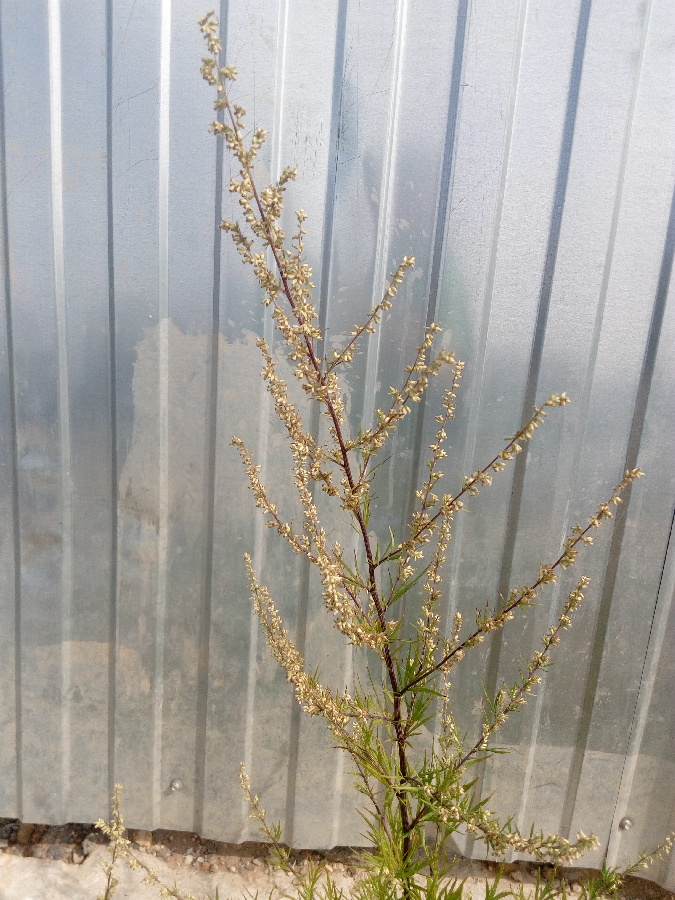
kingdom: Plantae
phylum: Tracheophyta
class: Magnoliopsida
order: Asterales
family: Asteraceae
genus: Artemisia
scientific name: Artemisia vulgaris
